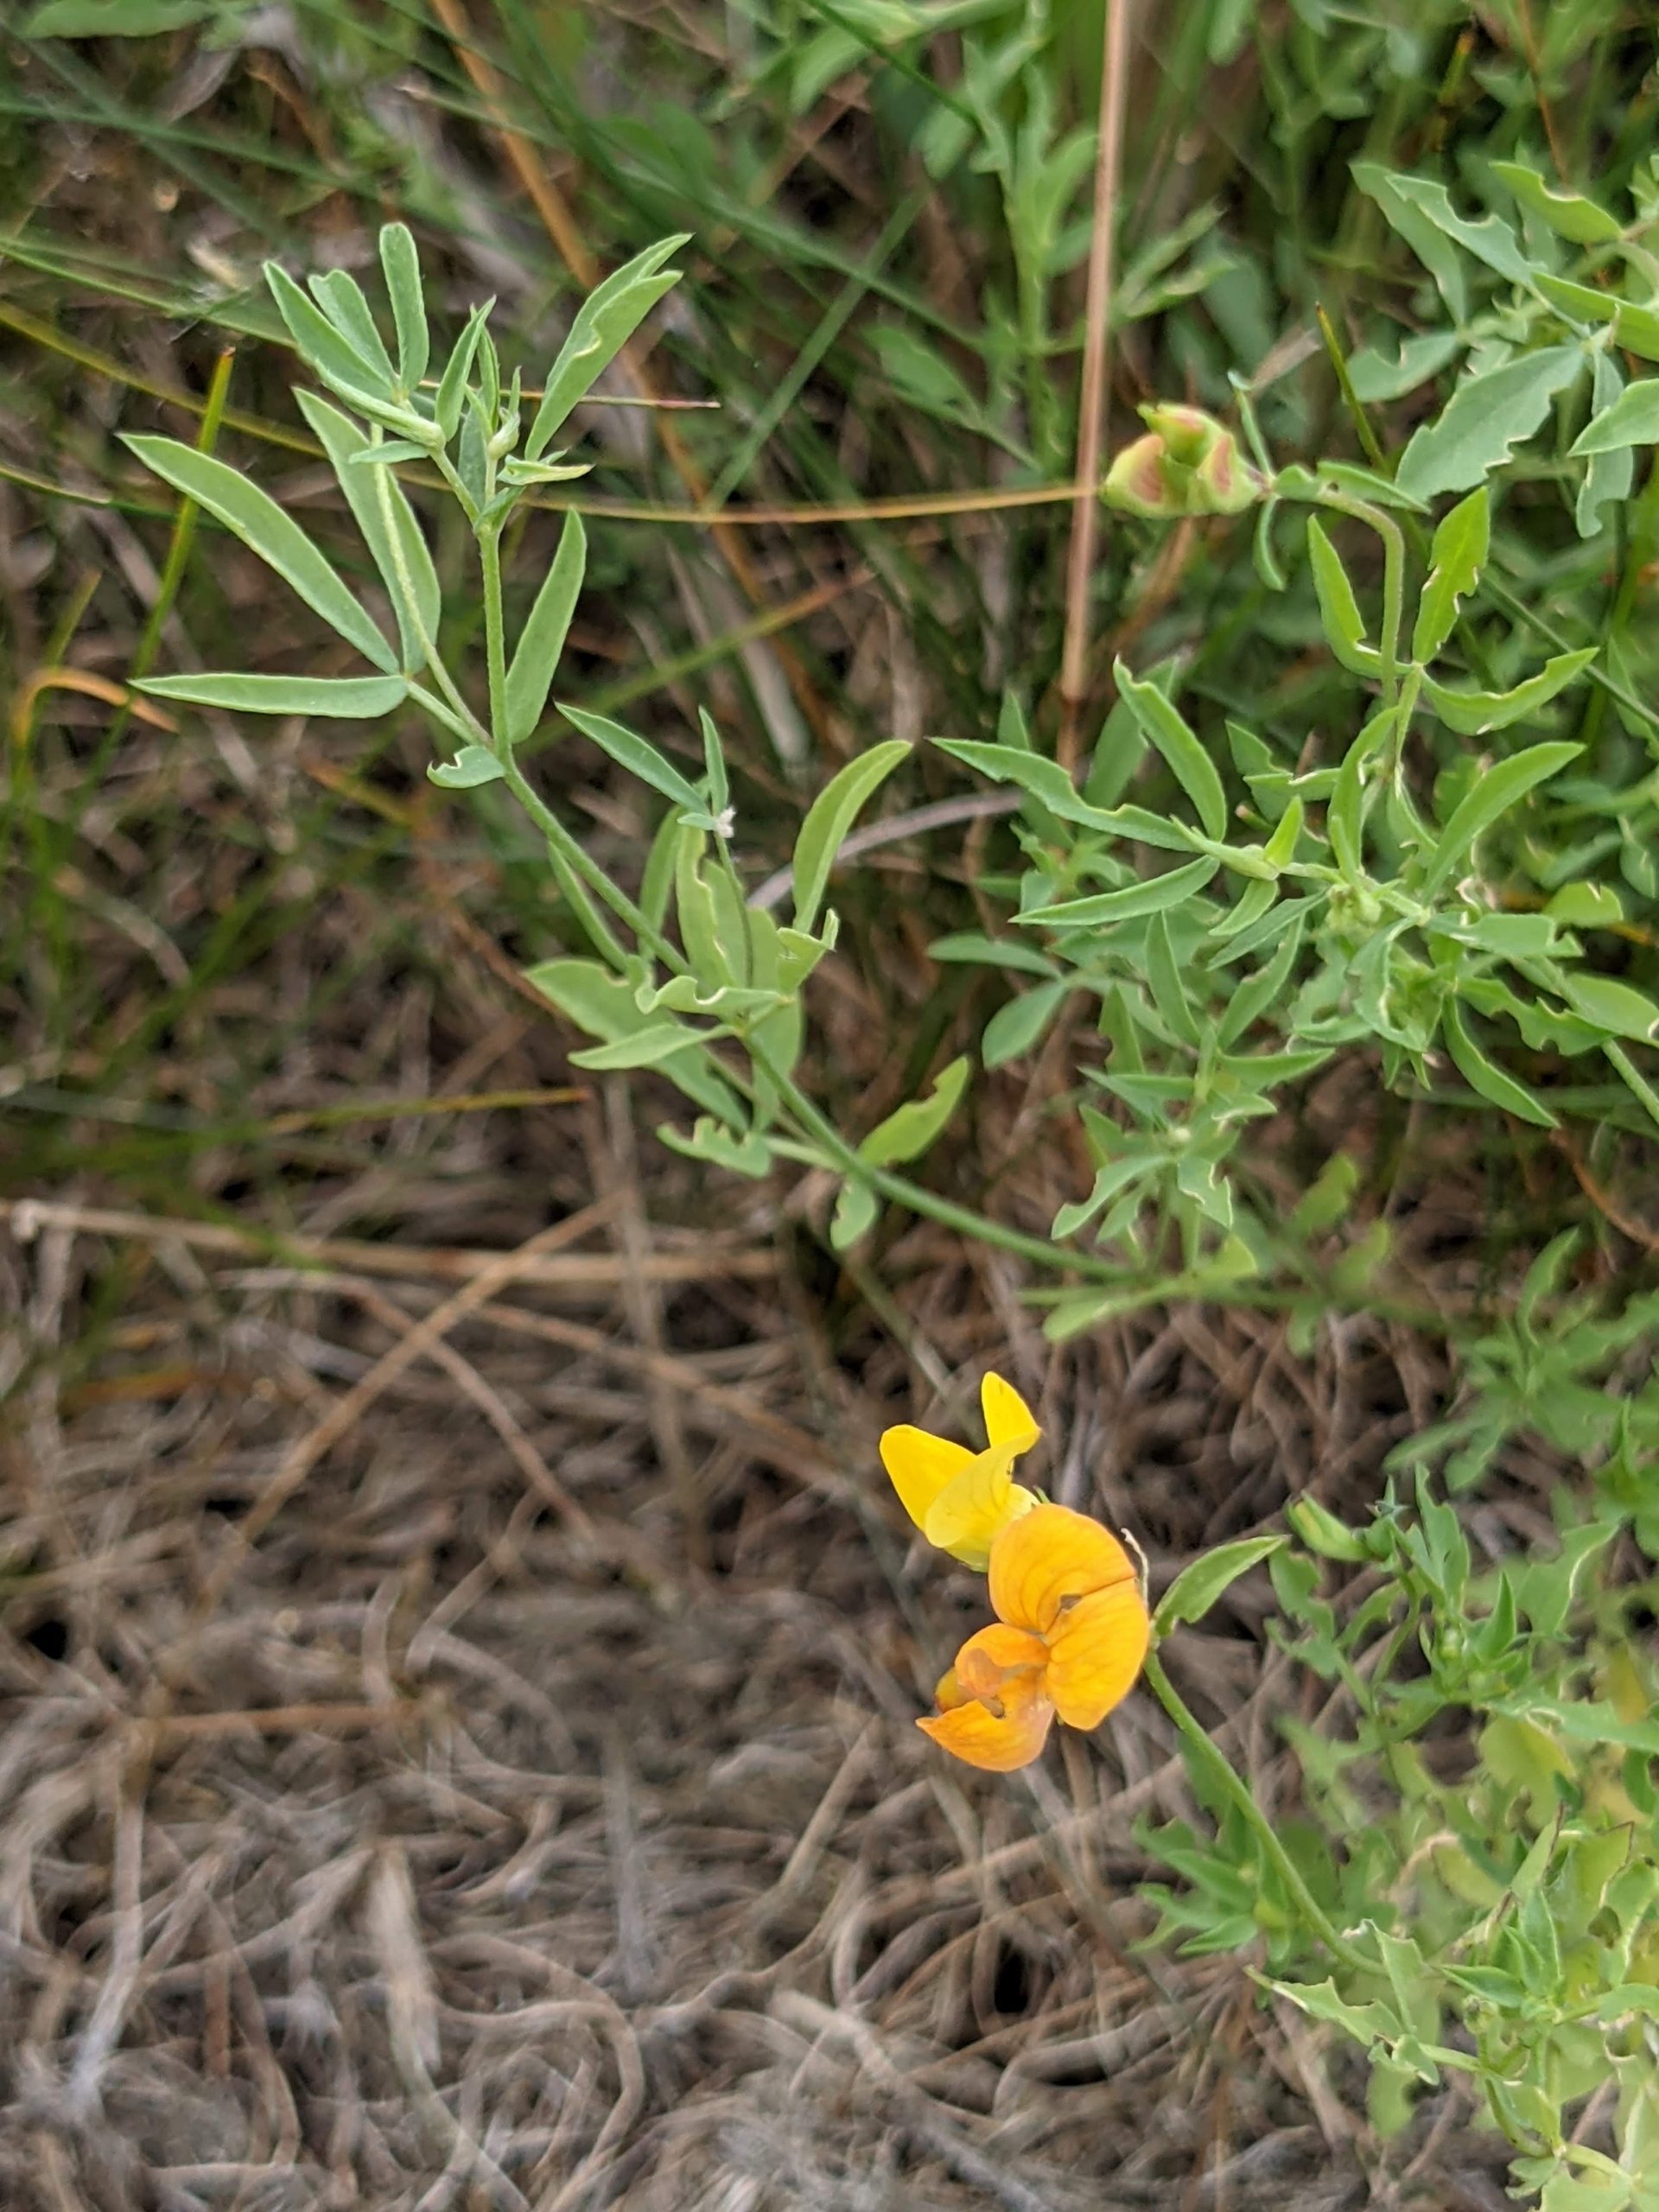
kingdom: Plantae
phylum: Tracheophyta
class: Magnoliopsida
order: Fabales
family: Fabaceae
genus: Lotus
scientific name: Lotus tenuis
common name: Smalbladet kællingetand
